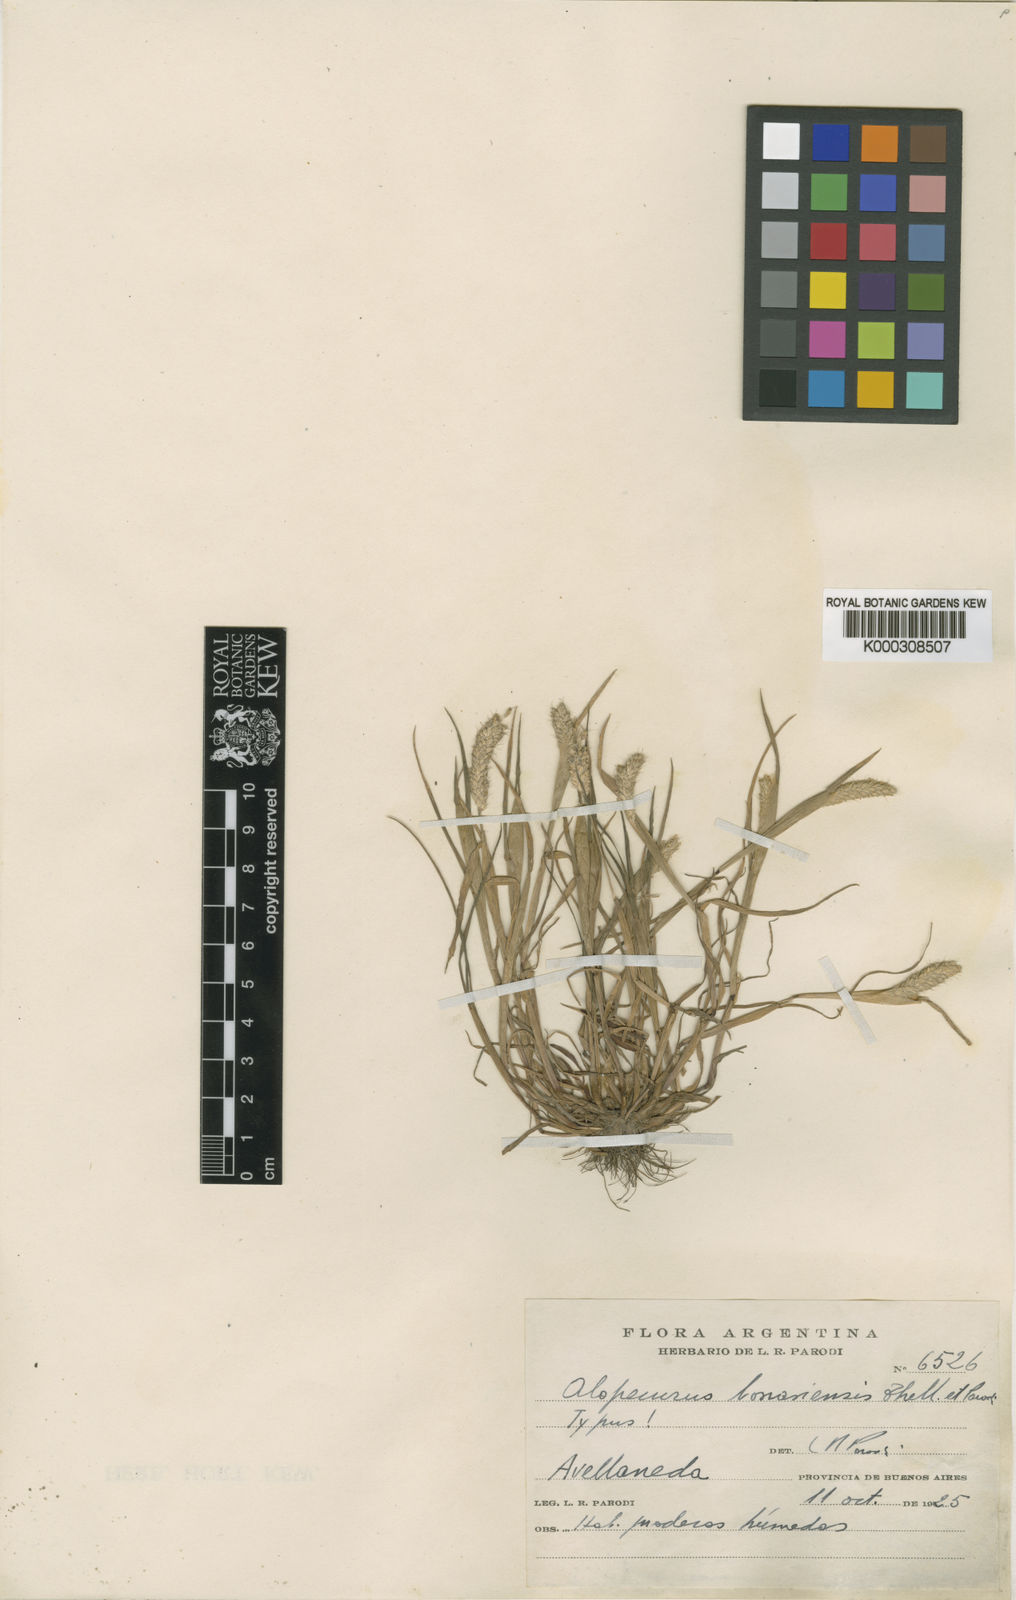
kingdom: Plantae
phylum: Tracheophyta
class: Liliopsida
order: Poales
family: Poaceae
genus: Alopecurus
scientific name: Alopecurus bonariensis
